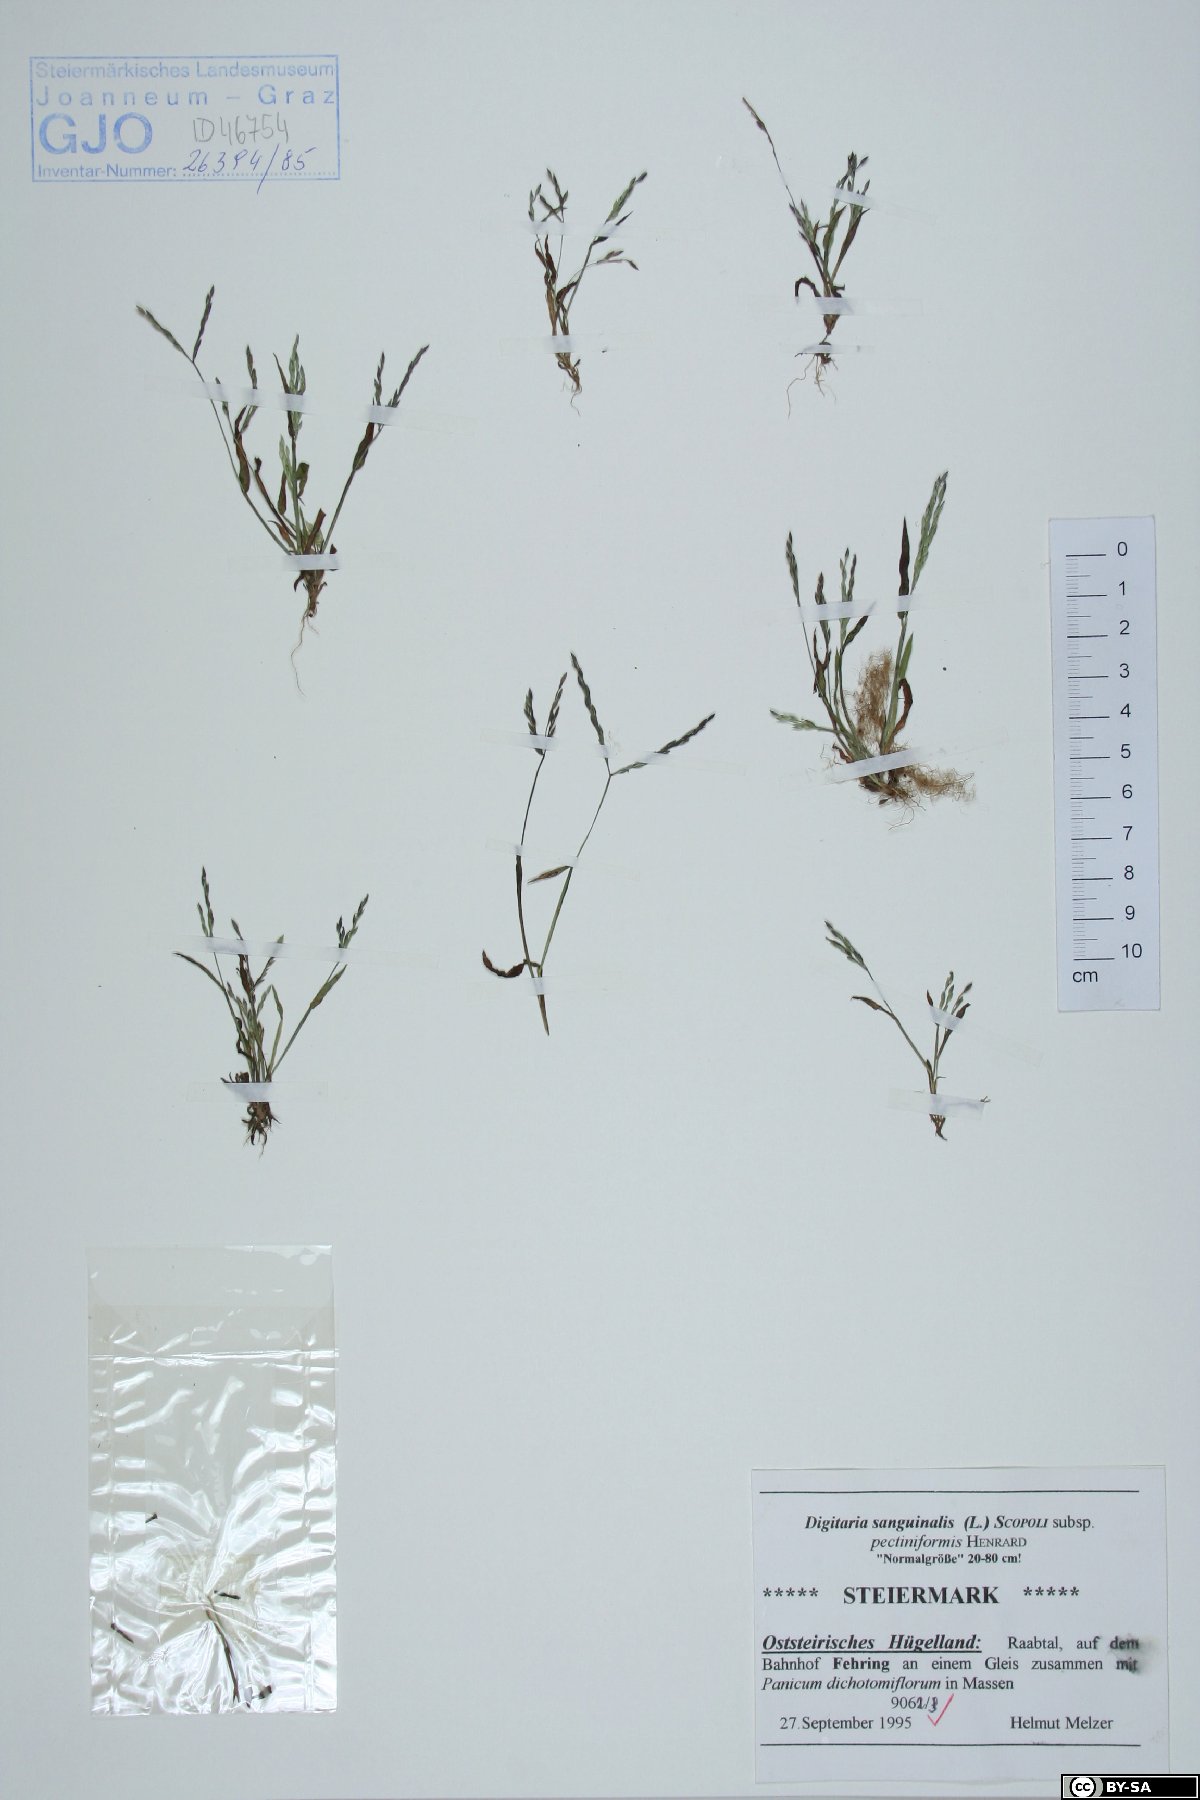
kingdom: Plantae
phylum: Tracheophyta
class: Liliopsida
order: Poales
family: Poaceae
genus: Digitaria
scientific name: Digitaria sanguinalis
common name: Hairy crabgrass
